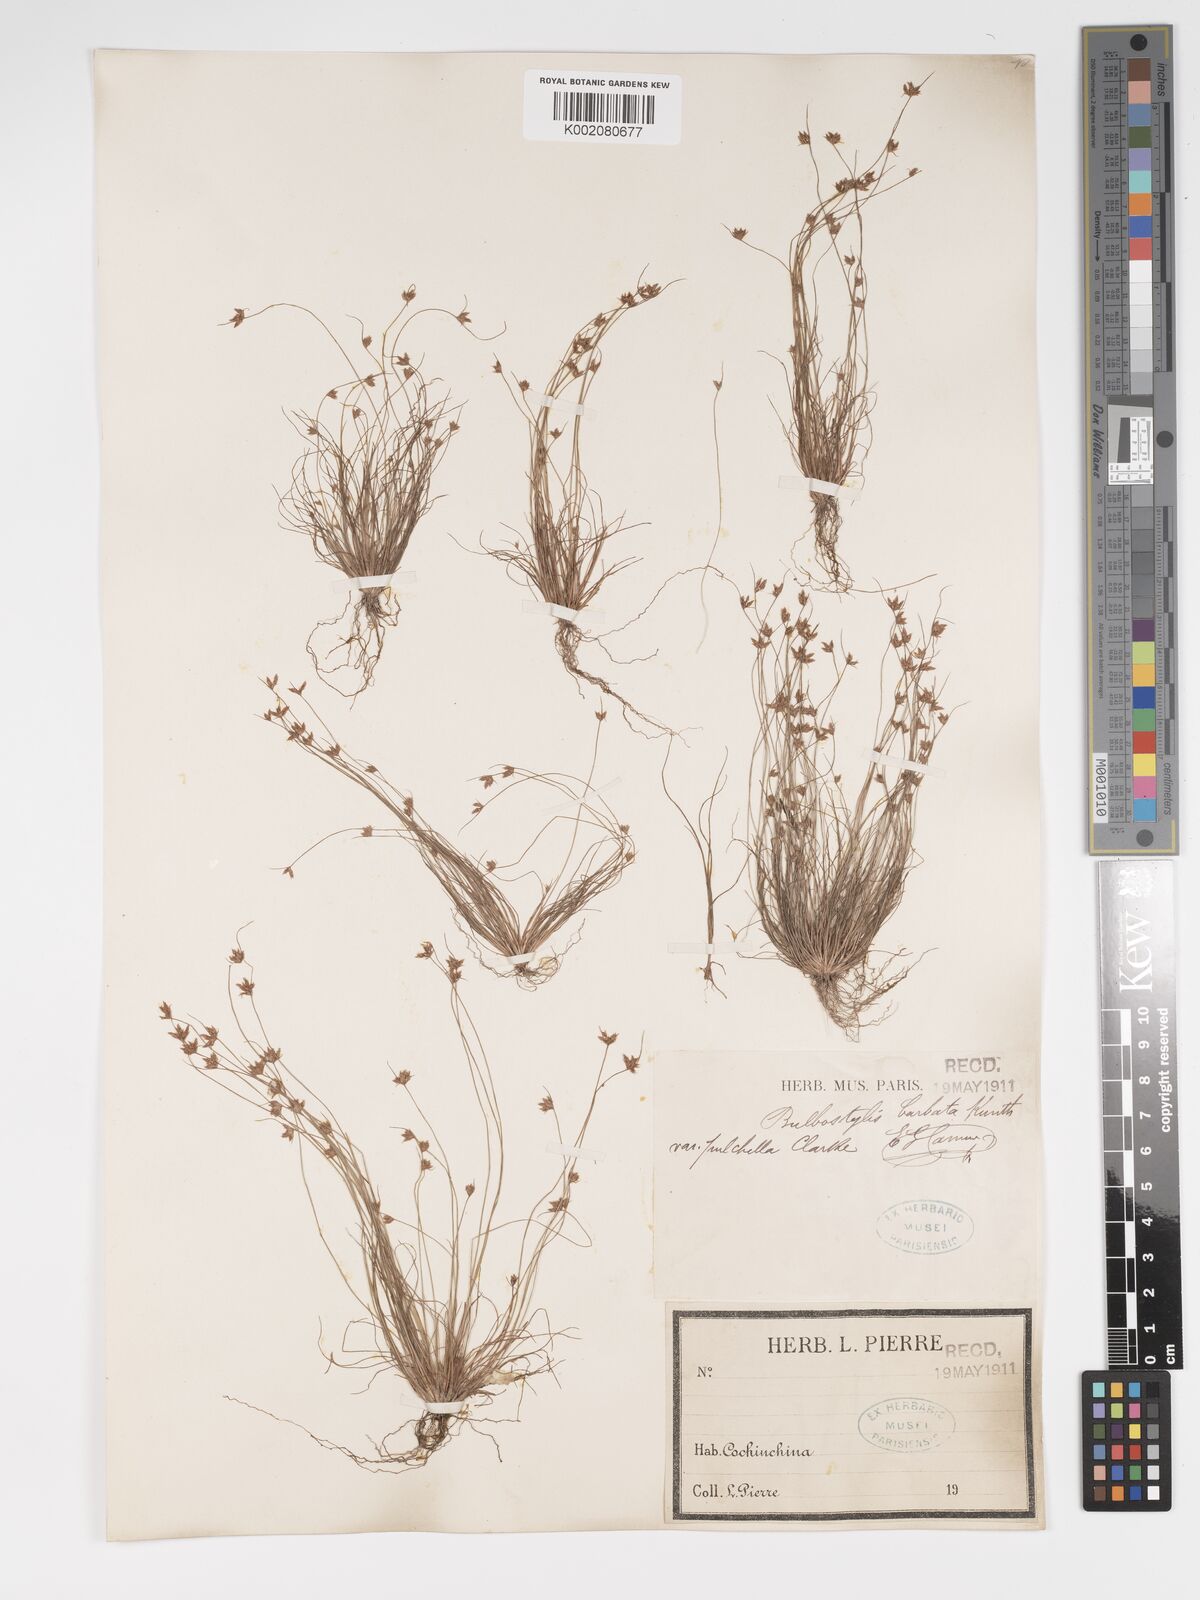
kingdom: Plantae
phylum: Tracheophyta
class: Liliopsida
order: Poales
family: Cyperaceae
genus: Bulbostylis
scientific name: Bulbostylis barbata
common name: Watergrass
